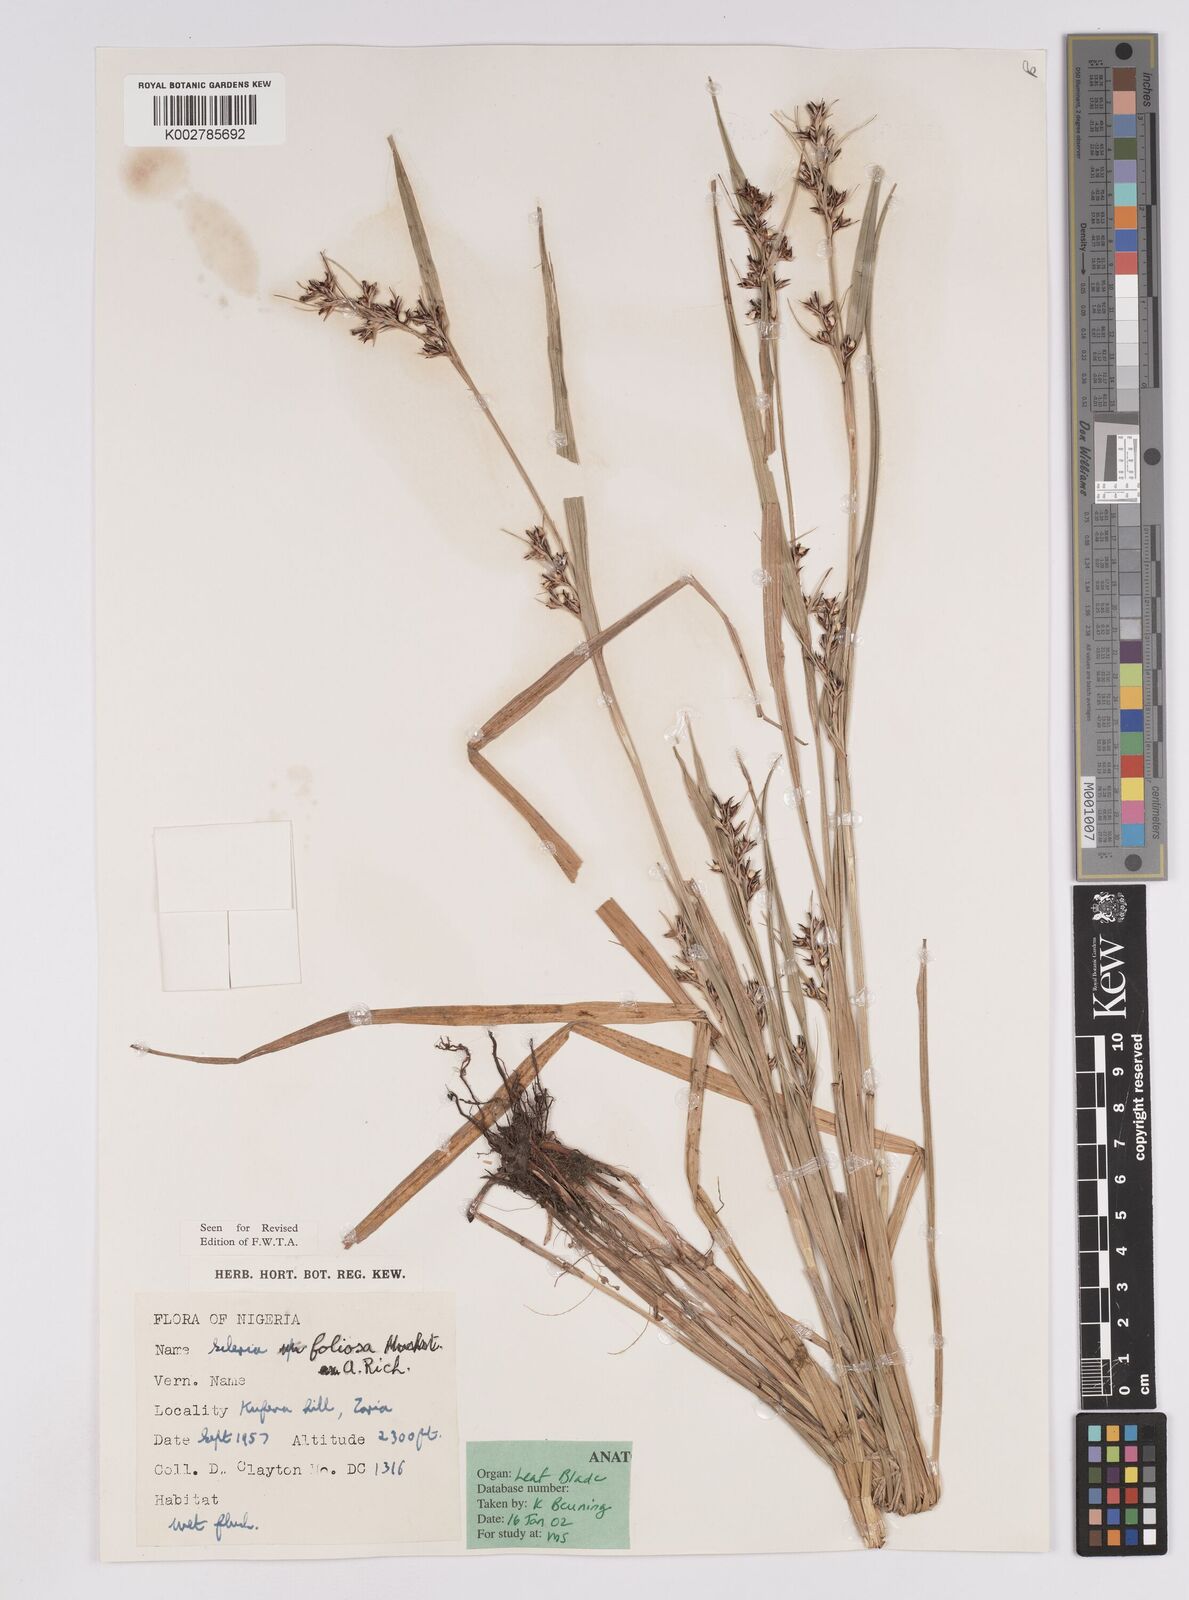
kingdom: Plantae
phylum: Tracheophyta
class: Liliopsida
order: Poales
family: Cyperaceae
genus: Scleria
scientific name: Scleria foliosa
